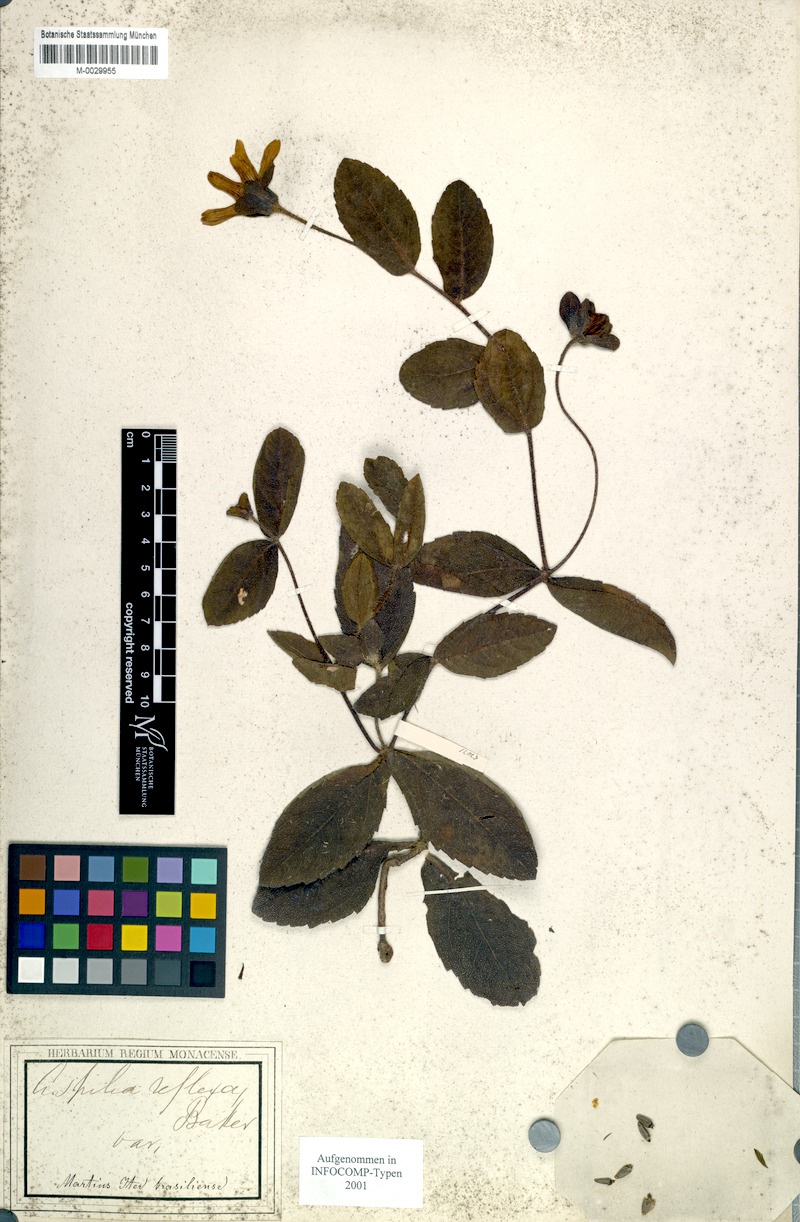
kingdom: Plantae
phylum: Tracheophyta
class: Magnoliopsida
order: Asterales
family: Asteraceae
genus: Wedelia
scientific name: Wedelia reflexa
